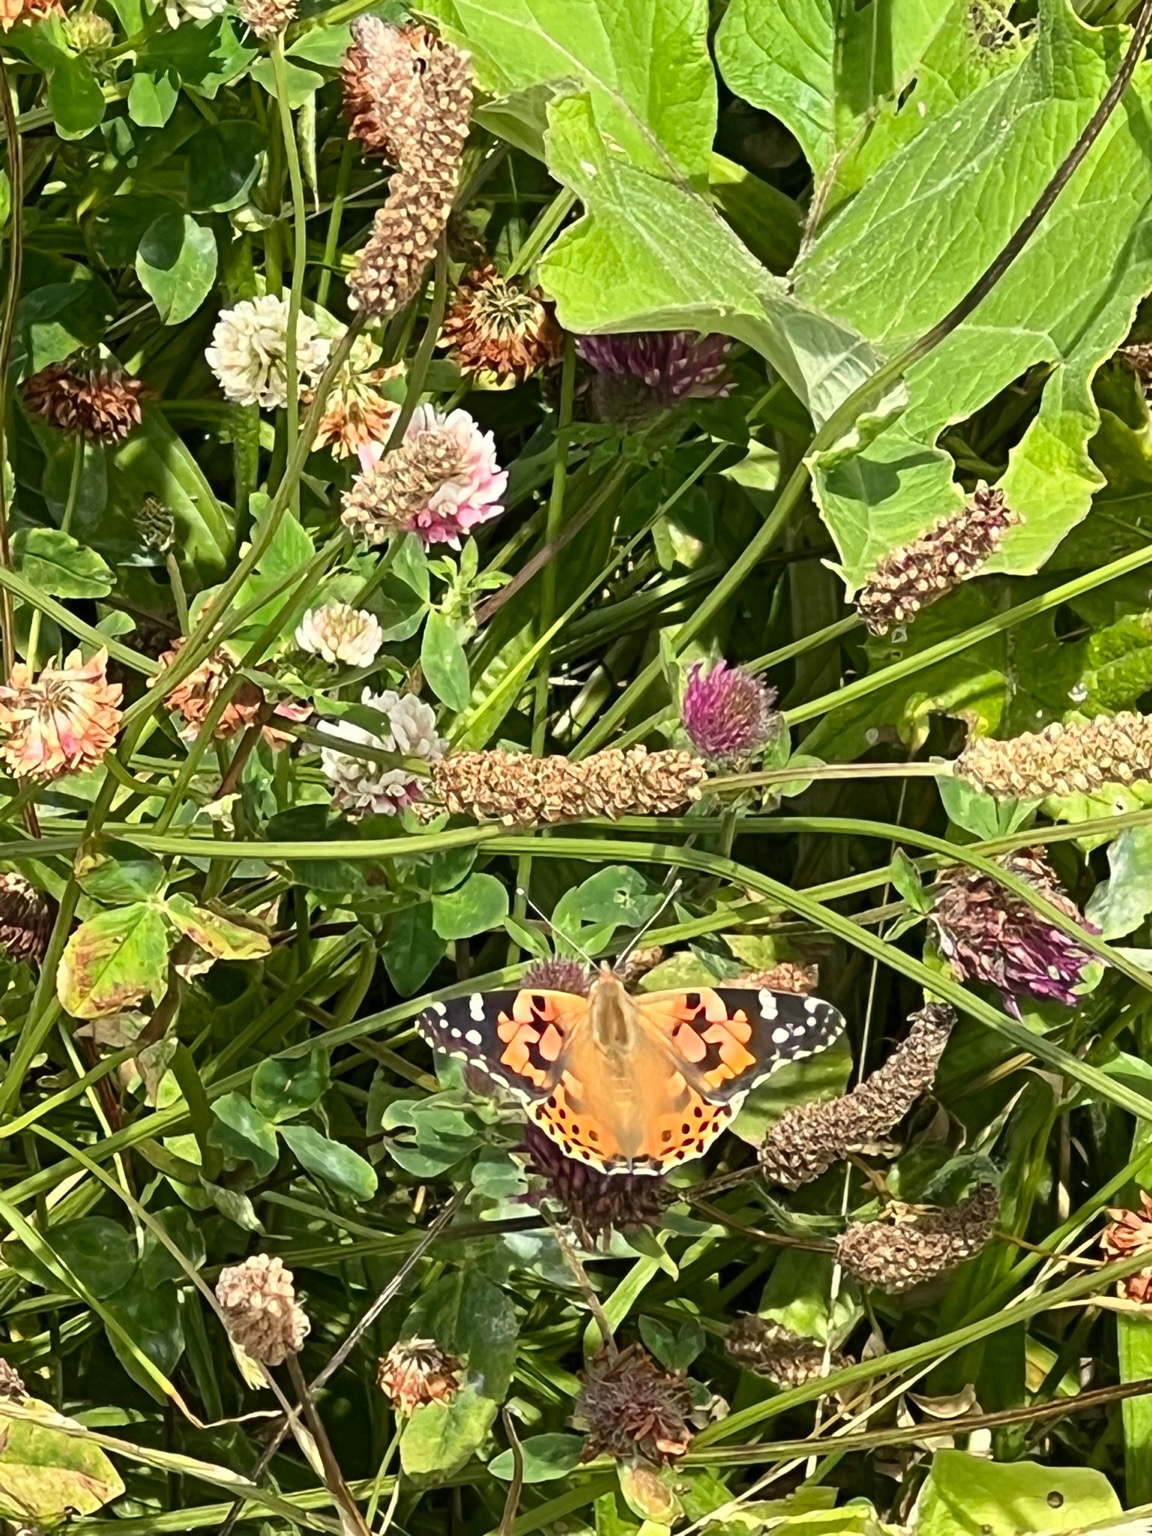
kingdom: Animalia
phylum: Arthropoda
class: Insecta
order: Lepidoptera
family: Nymphalidae
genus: Vanessa
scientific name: Vanessa cardui
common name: Tidselsommerfugl
